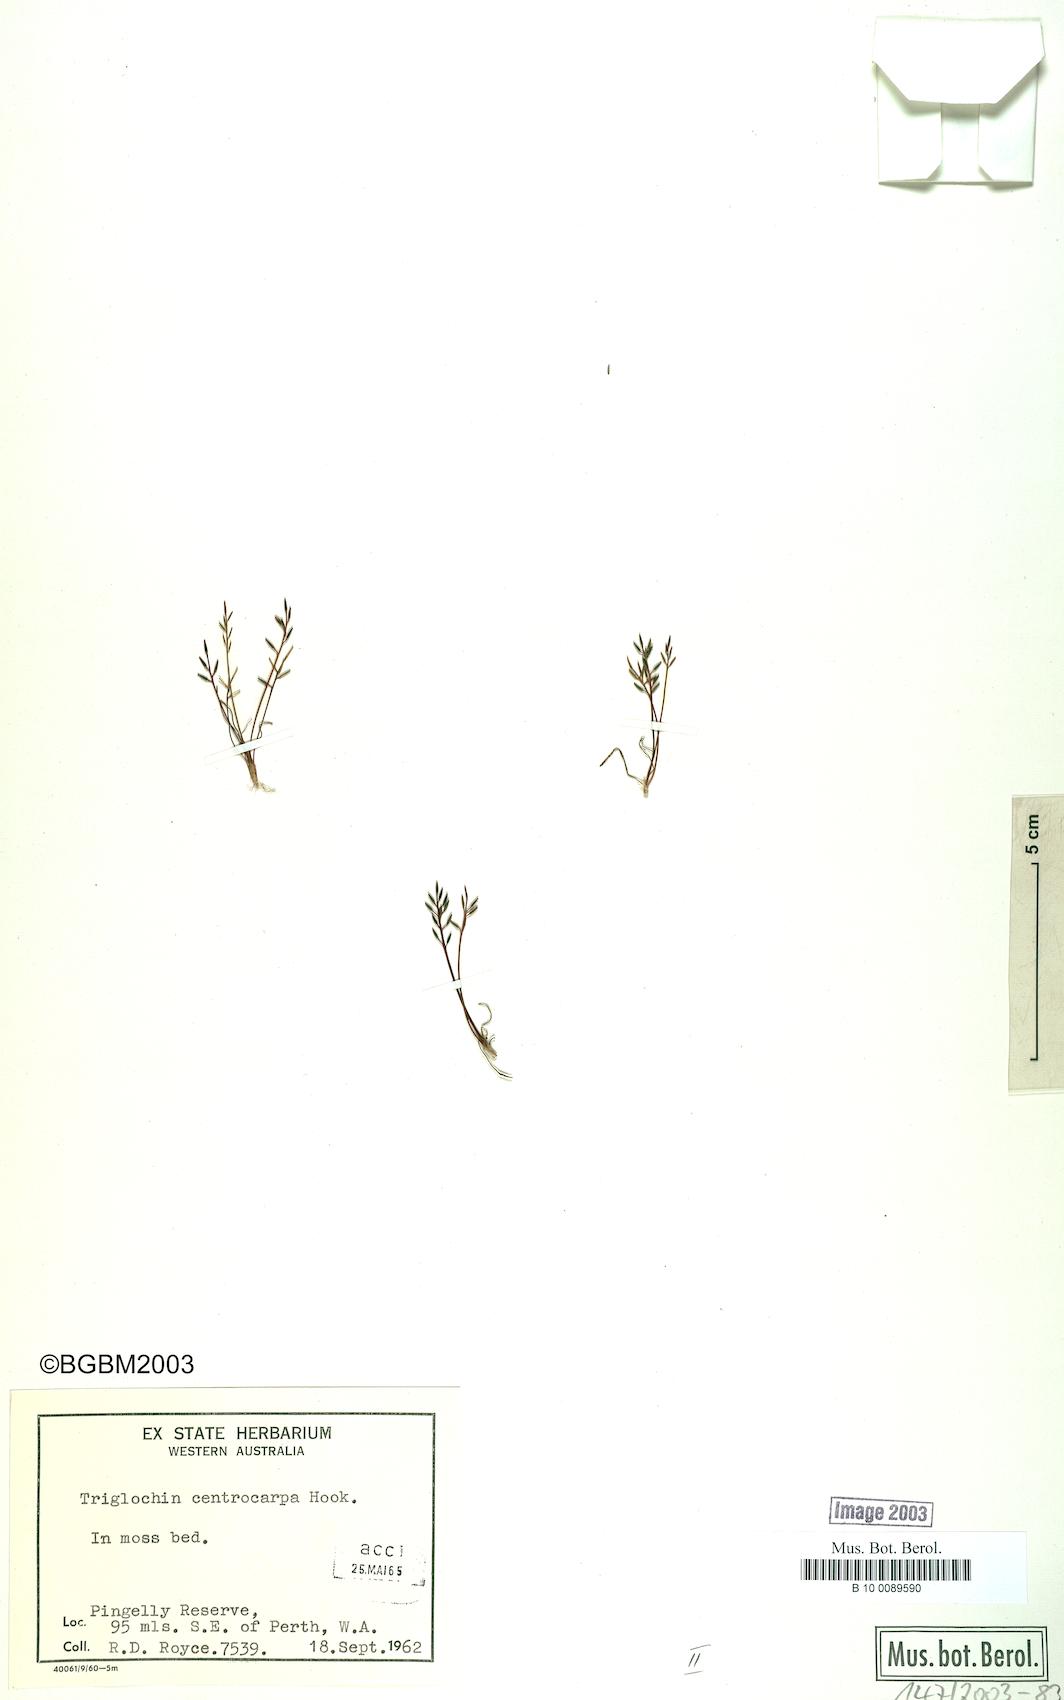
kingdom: Plantae
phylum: Tracheophyta
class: Liliopsida
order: Alismatales
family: Juncaginaceae
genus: Triglochin
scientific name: Triglochin centrocarpa
